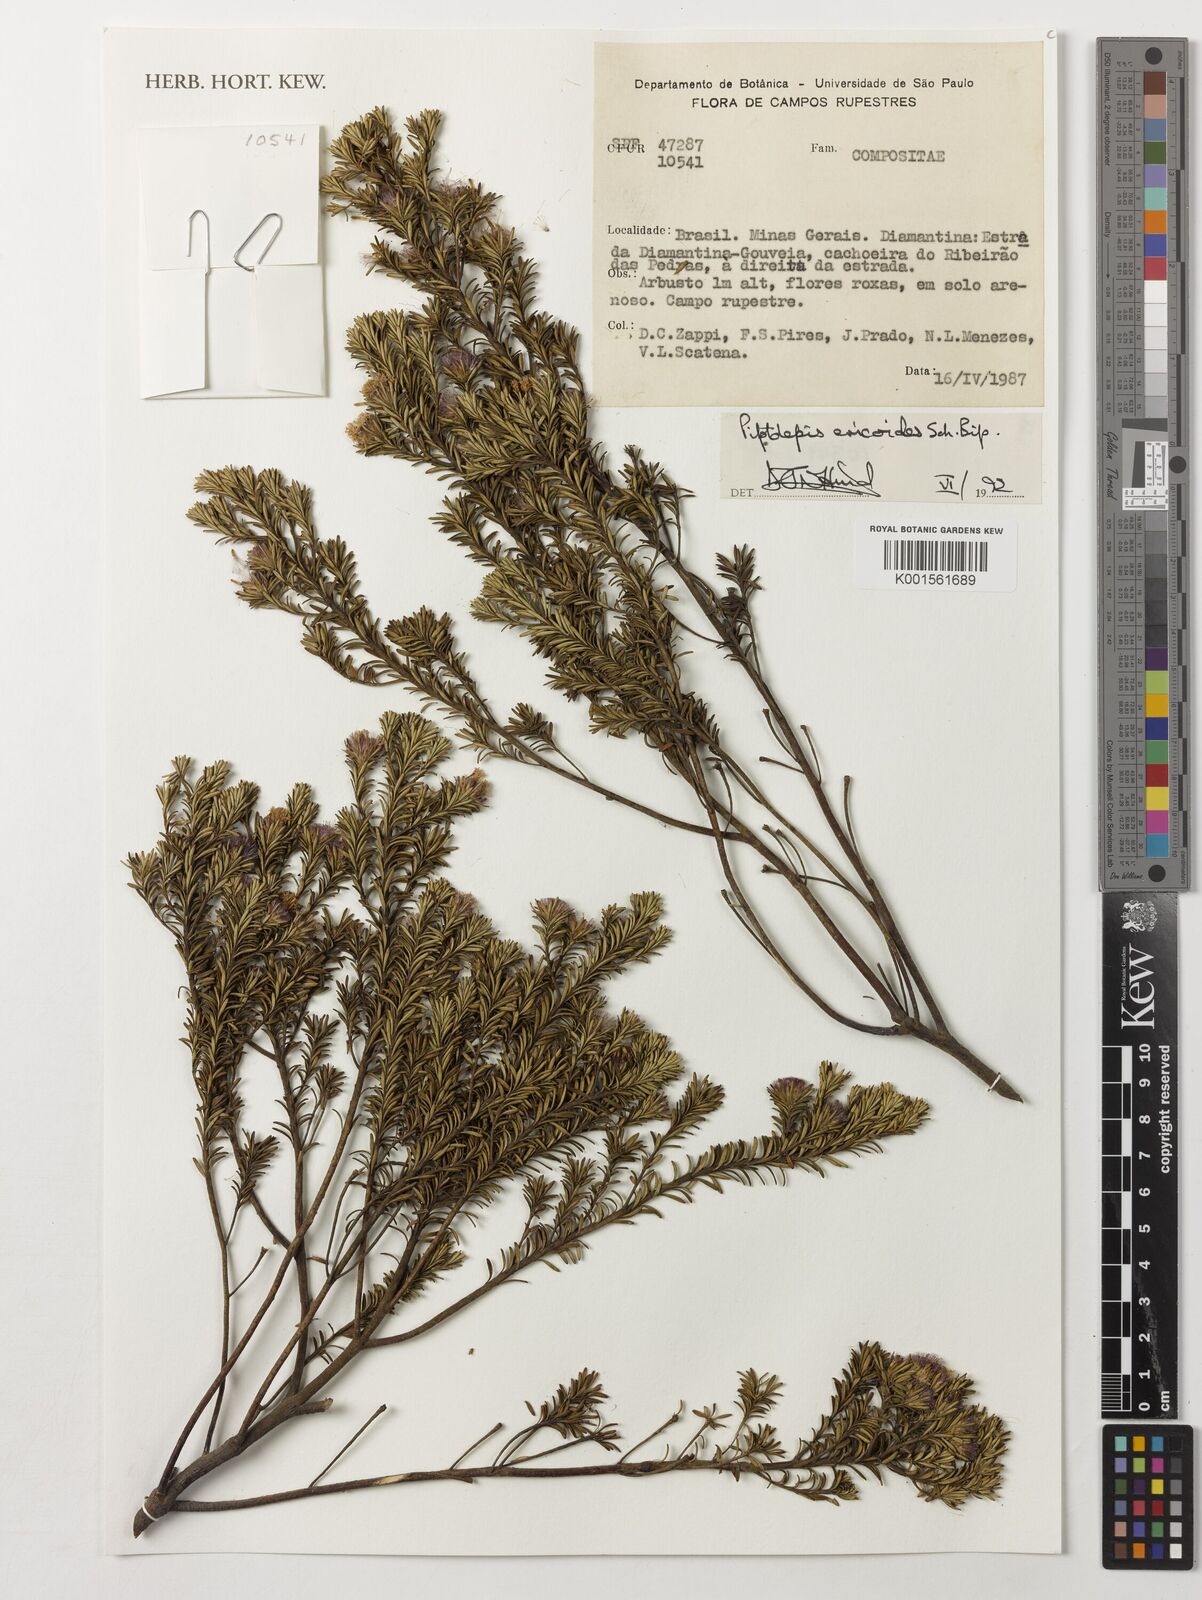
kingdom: Plantae
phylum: Tracheophyta
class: Magnoliopsida
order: Asterales
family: Asteraceae
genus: Piptolepis
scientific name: Piptolepis ericoides
